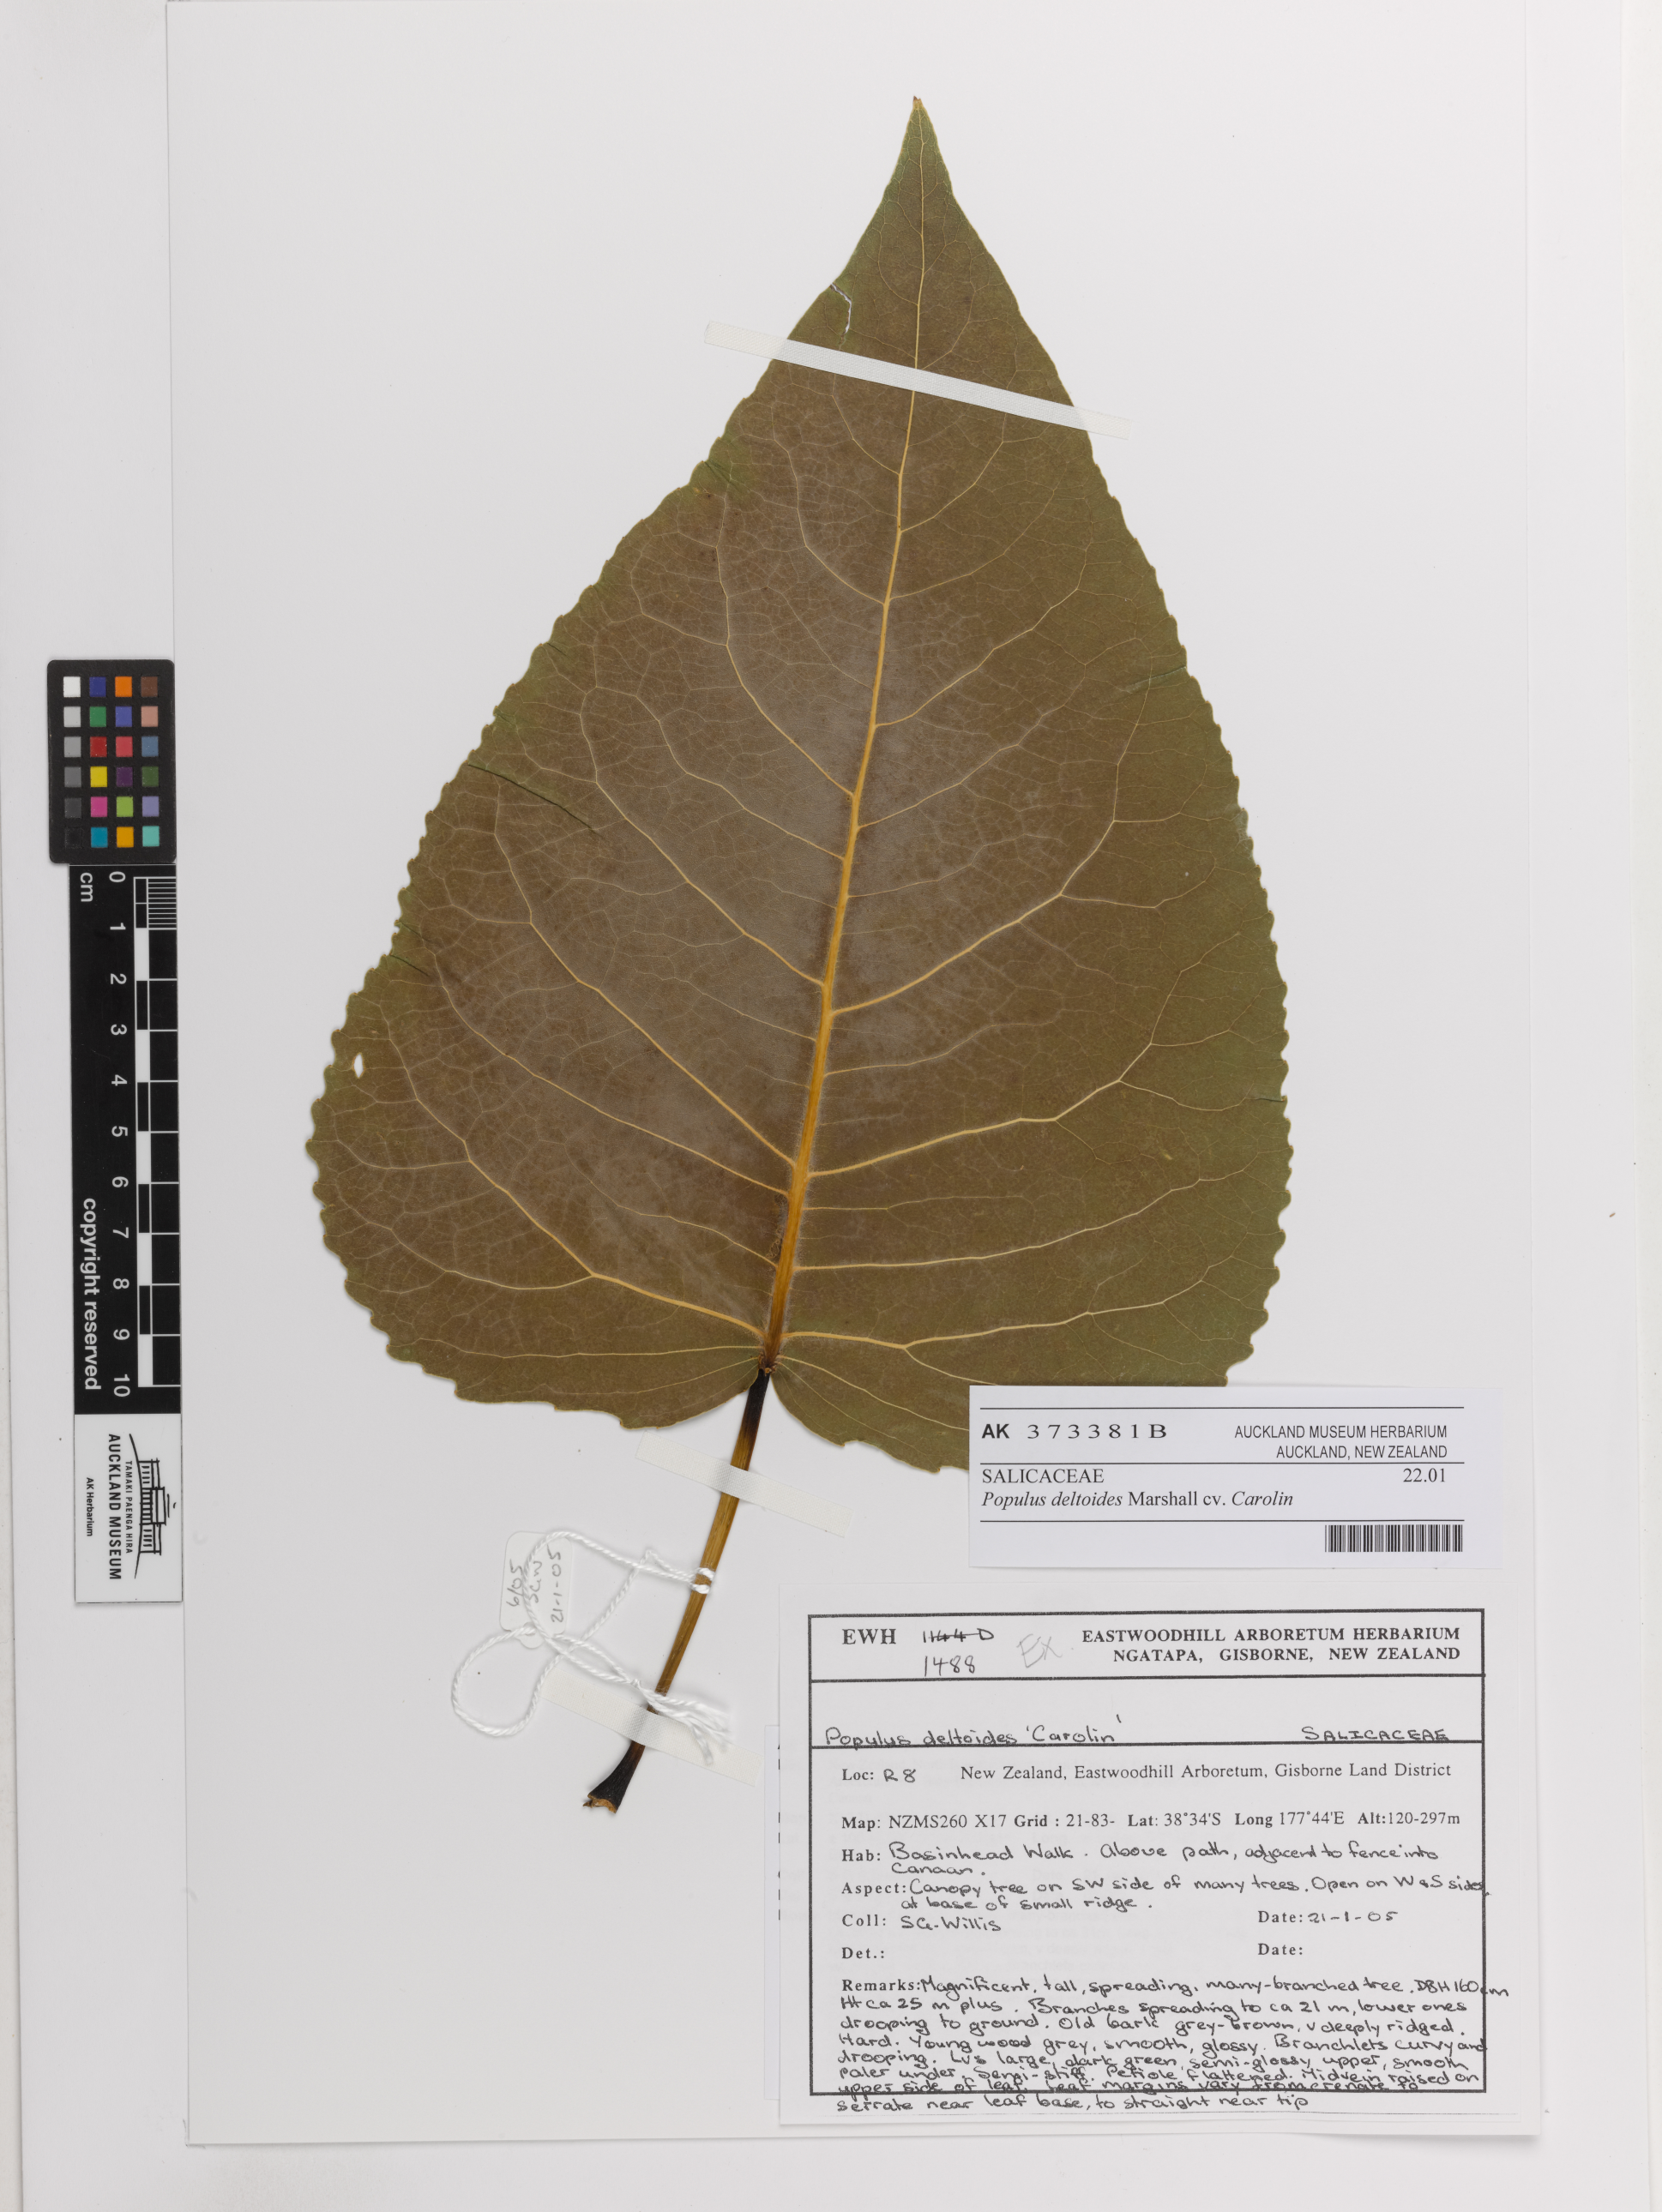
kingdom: Plantae
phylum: Tracheophyta
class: Magnoliopsida
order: Malpighiales
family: Salicaceae
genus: Populus
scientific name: Populus deltoides
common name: Eastern cottonwood
